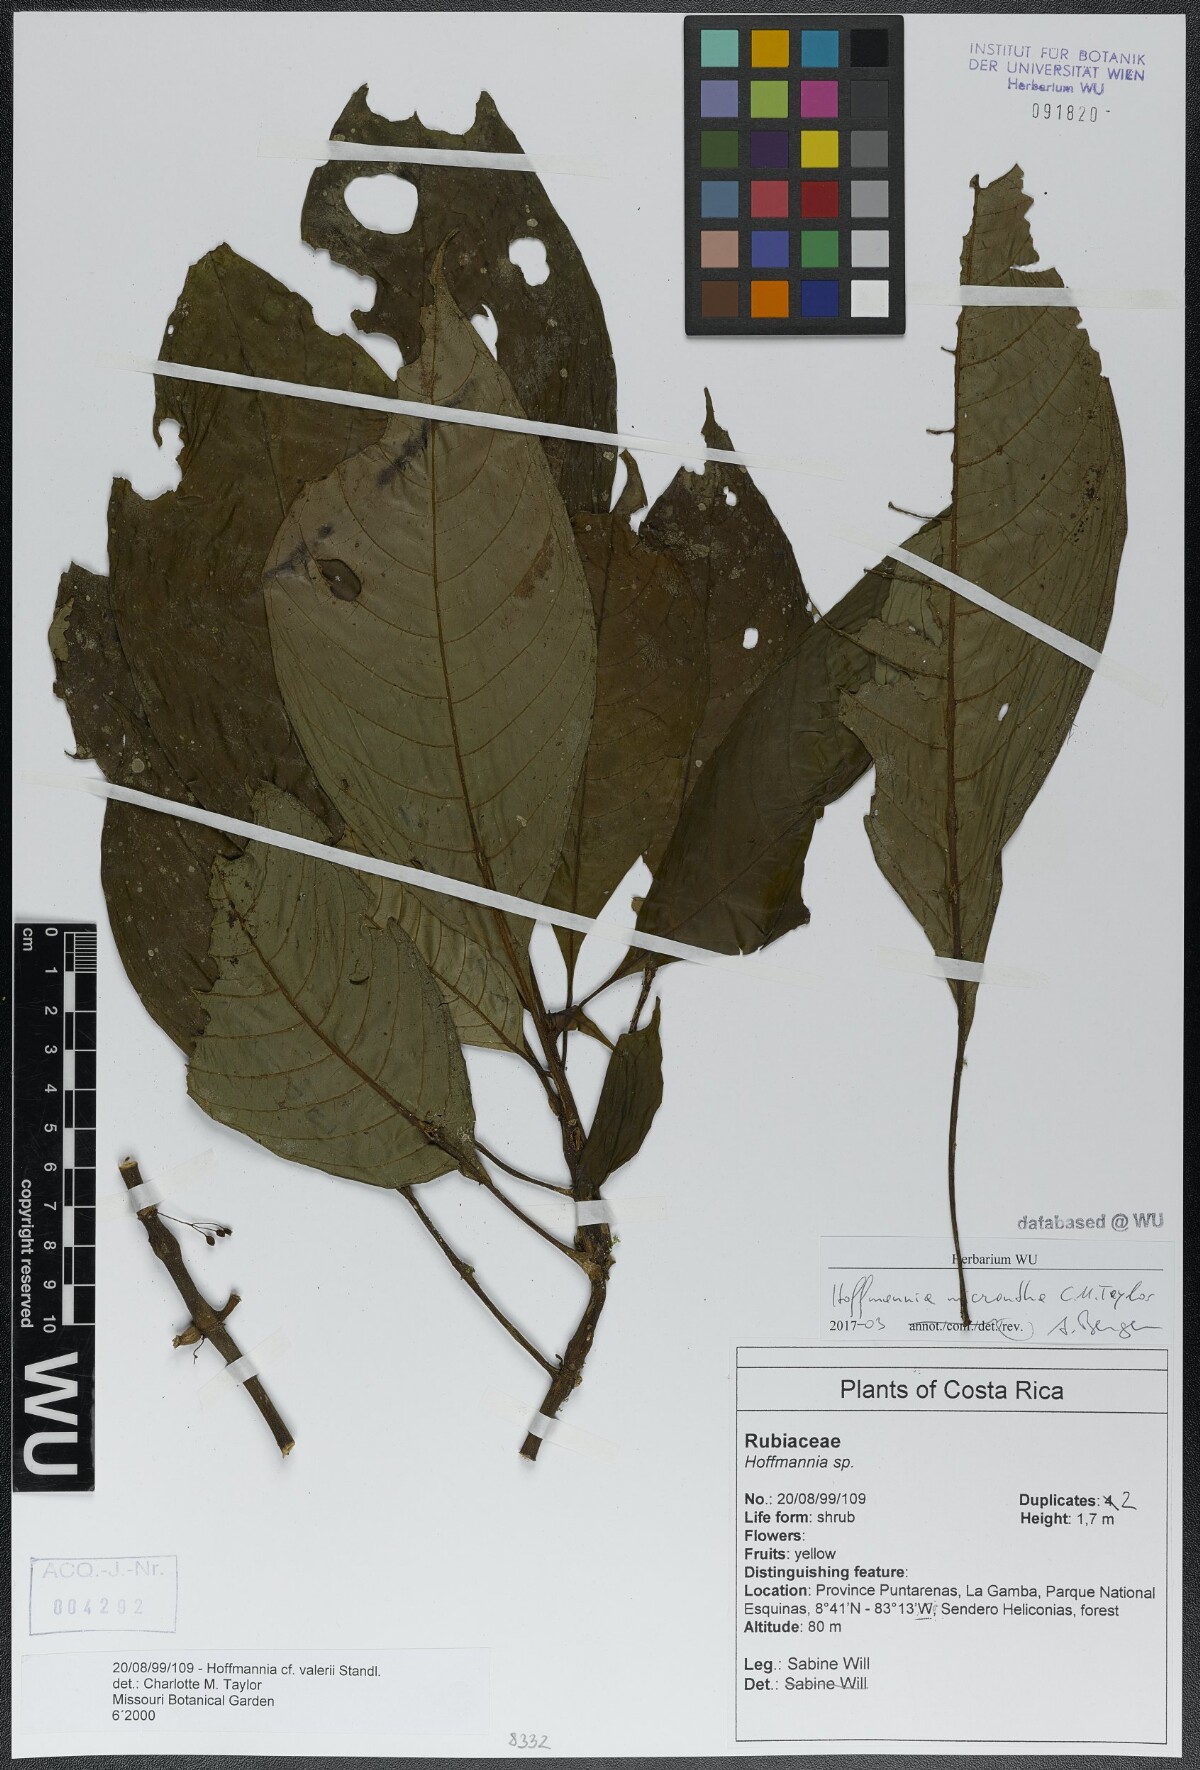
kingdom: Plantae
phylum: Tracheophyta
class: Magnoliopsida
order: Gentianales
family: Rubiaceae
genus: Hoffmannia
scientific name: Hoffmannia micrantha
